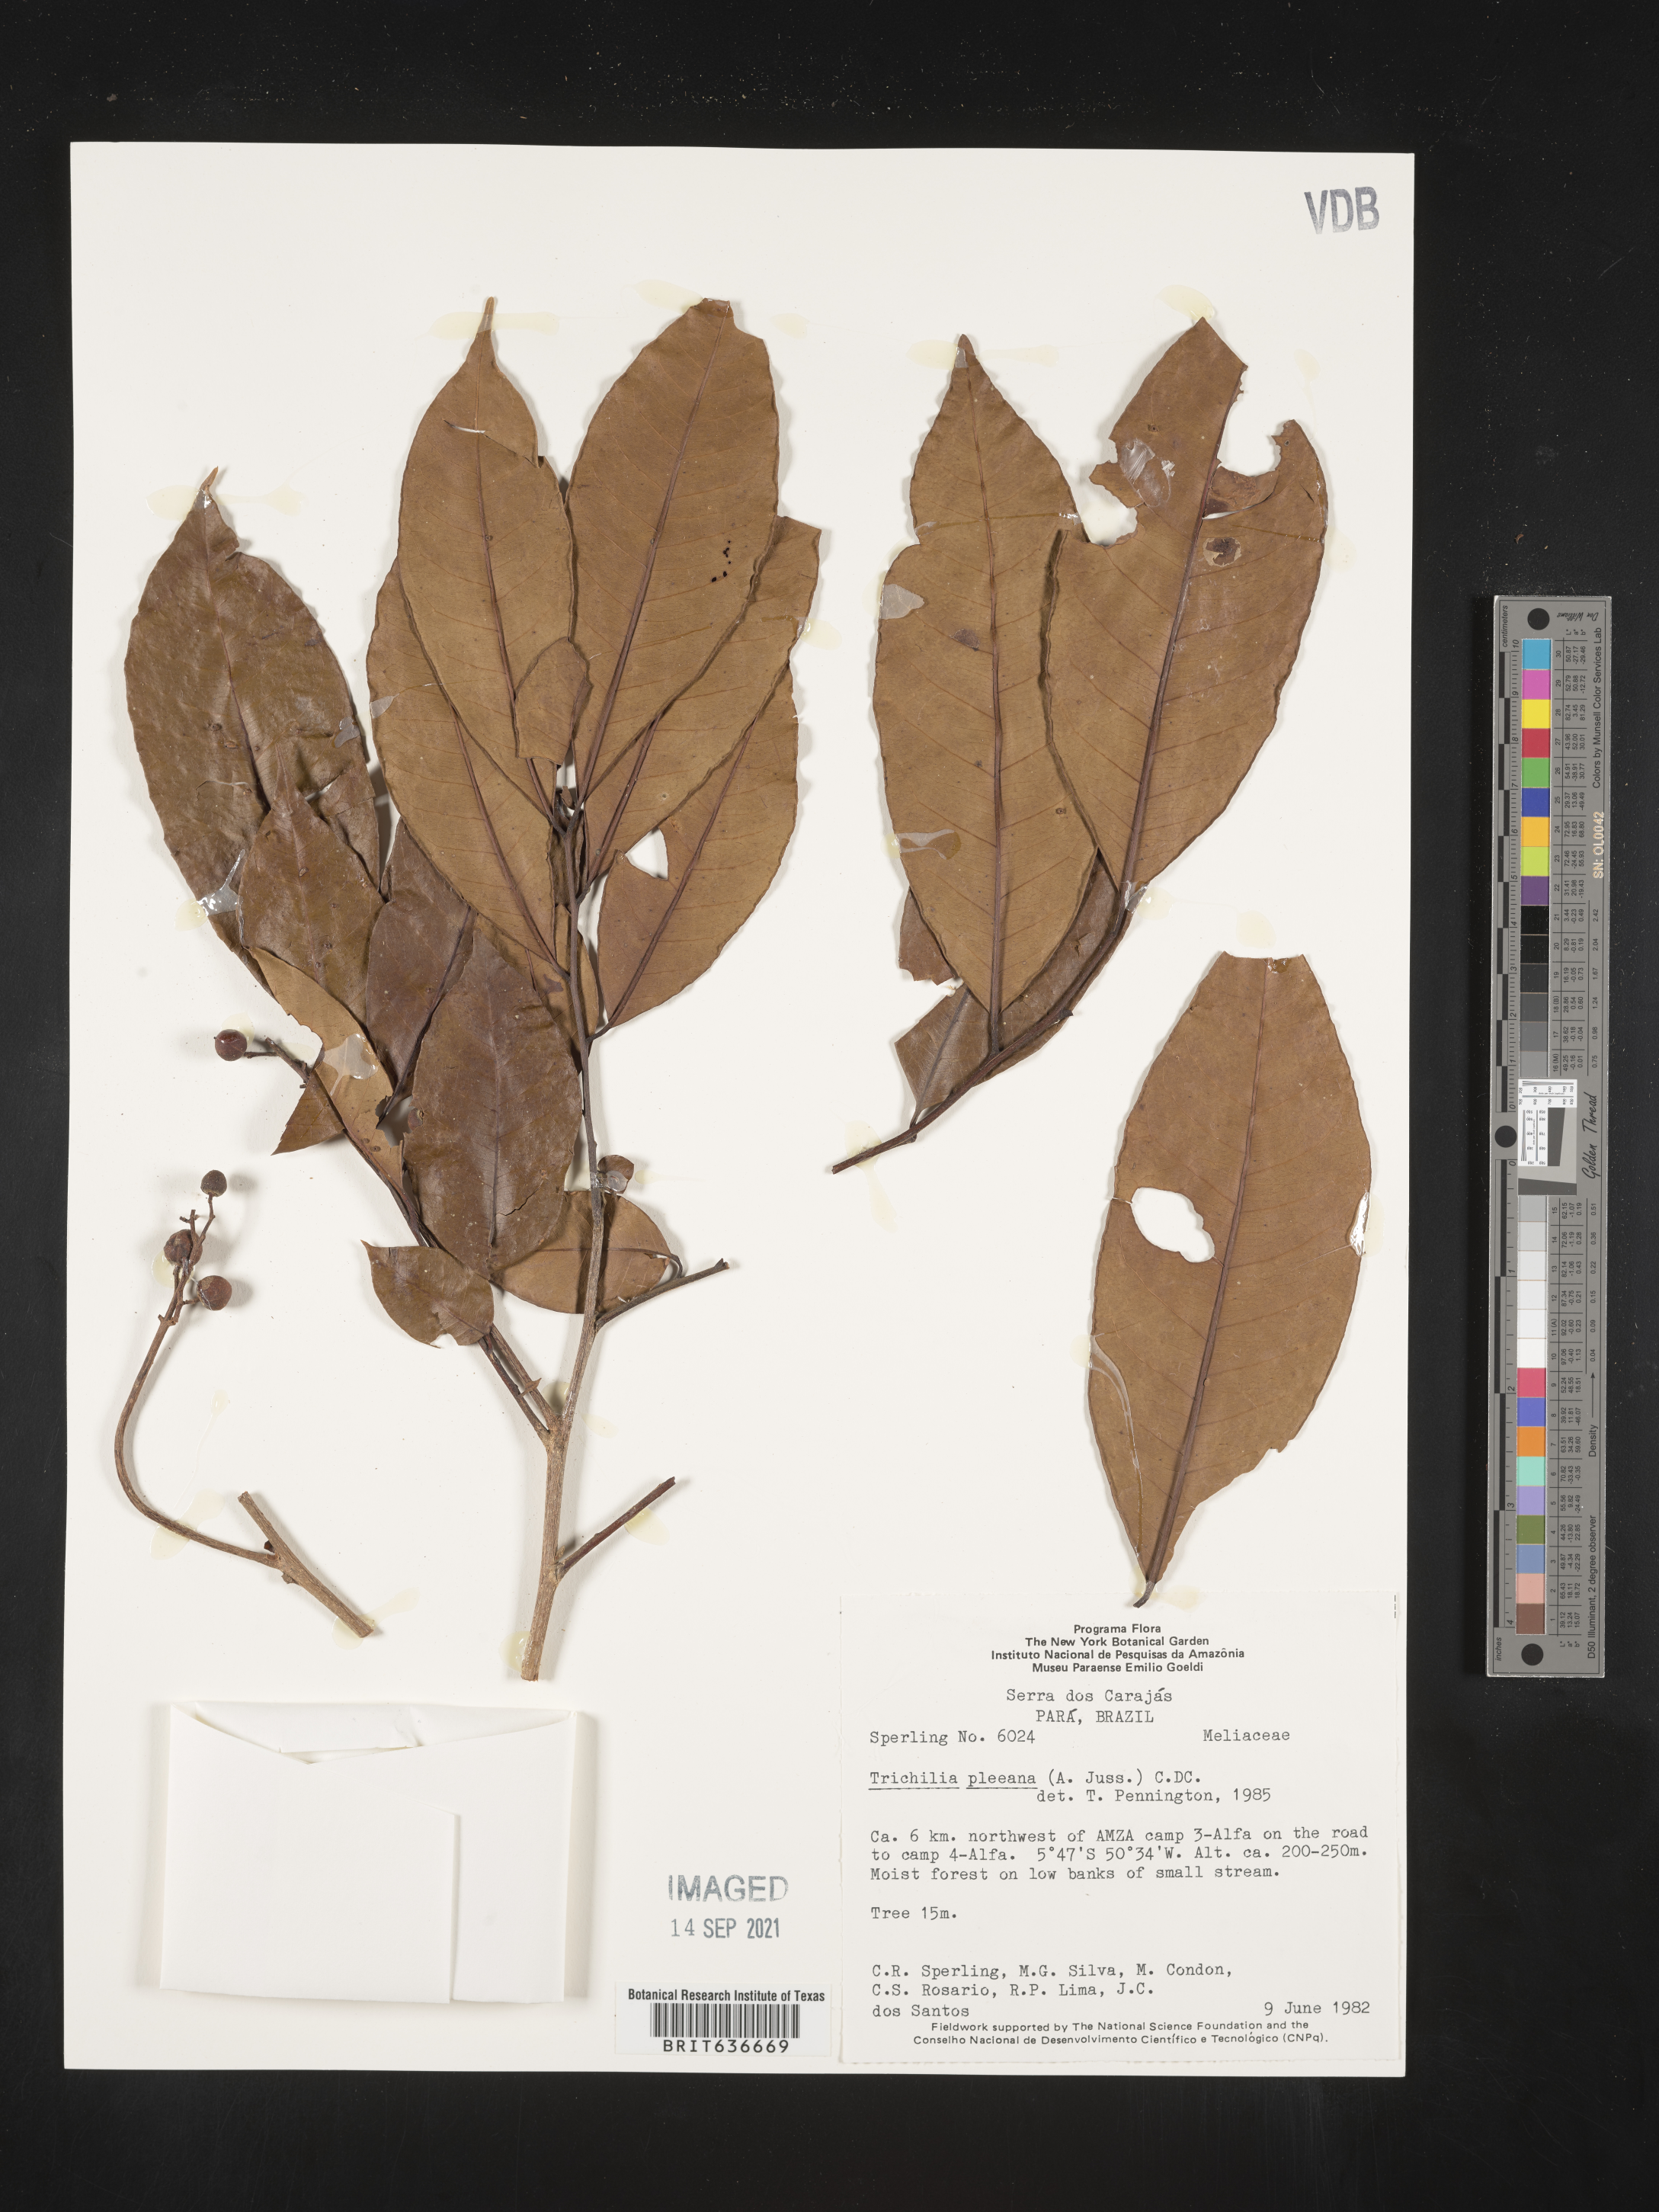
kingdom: Plantae
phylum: Tracheophyta
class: Magnoliopsida
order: Sapindales
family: Meliaceae
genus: Trichilia
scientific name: Trichilia
